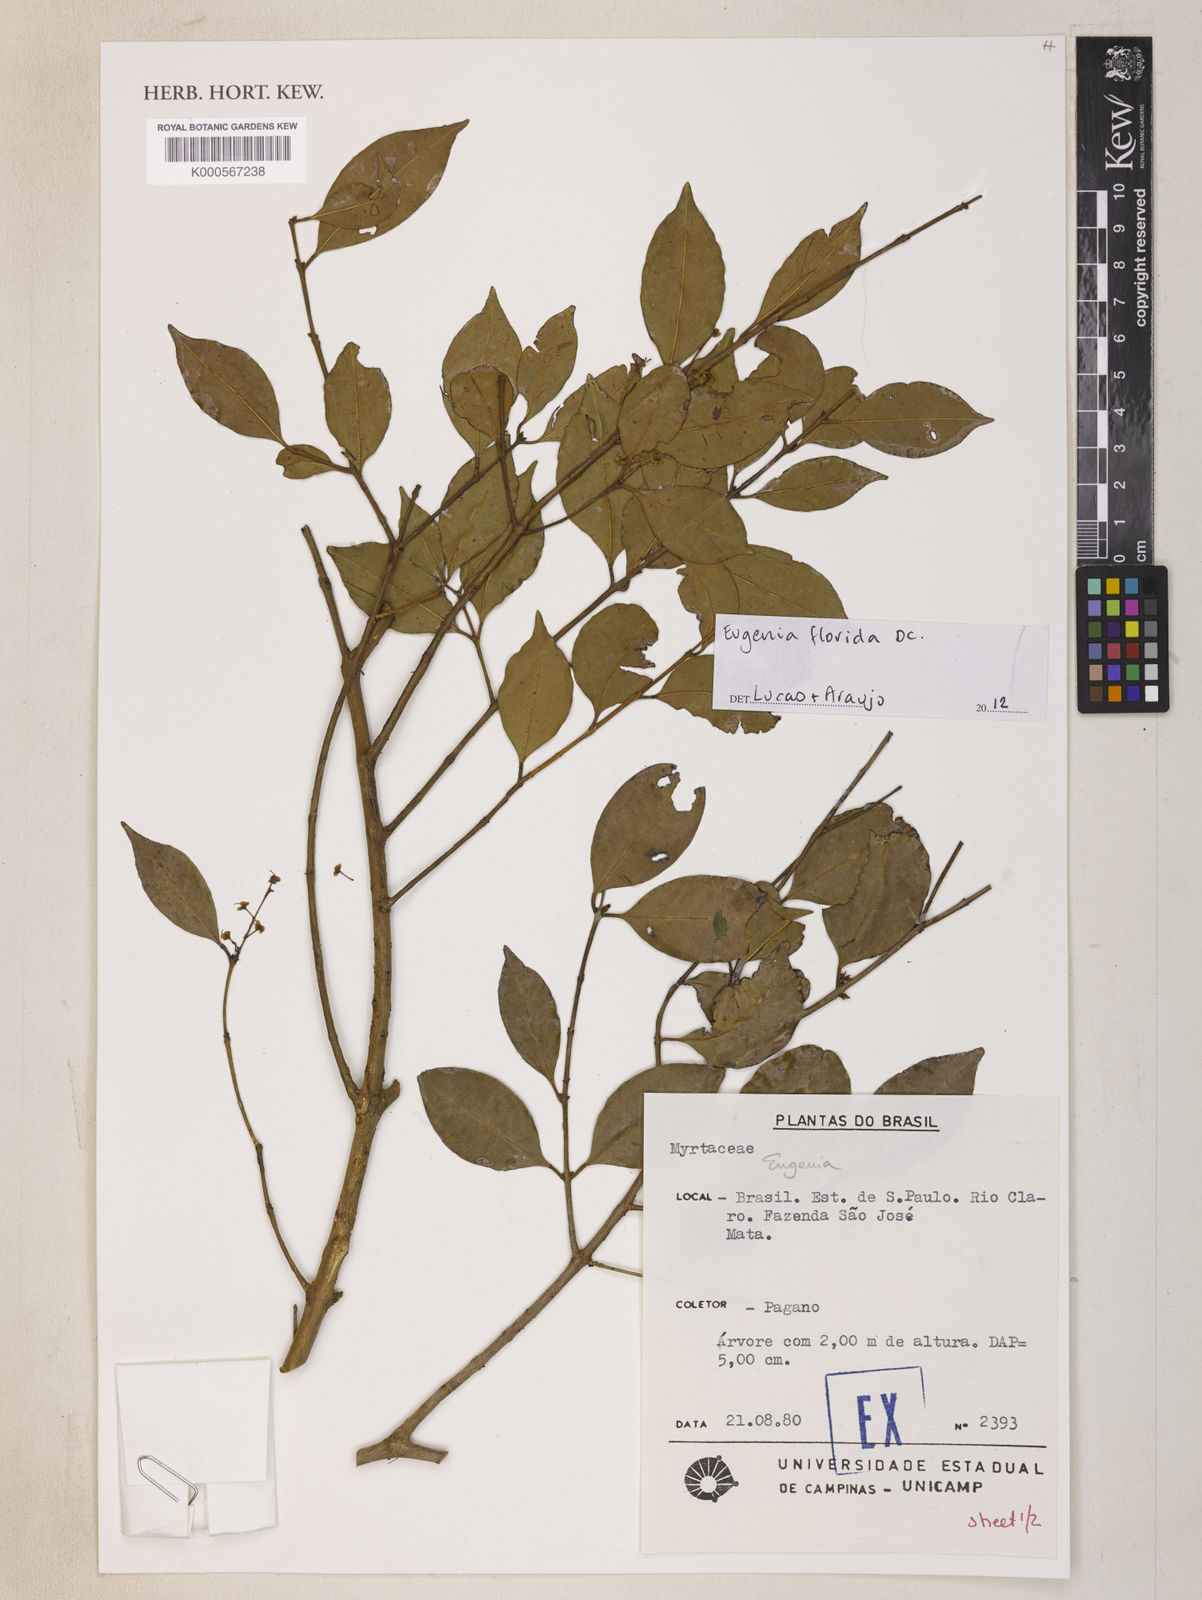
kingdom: Plantae
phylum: Tracheophyta
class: Magnoliopsida
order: Myrtales
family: Myrtaceae
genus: Eugenia
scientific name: Eugenia florida
